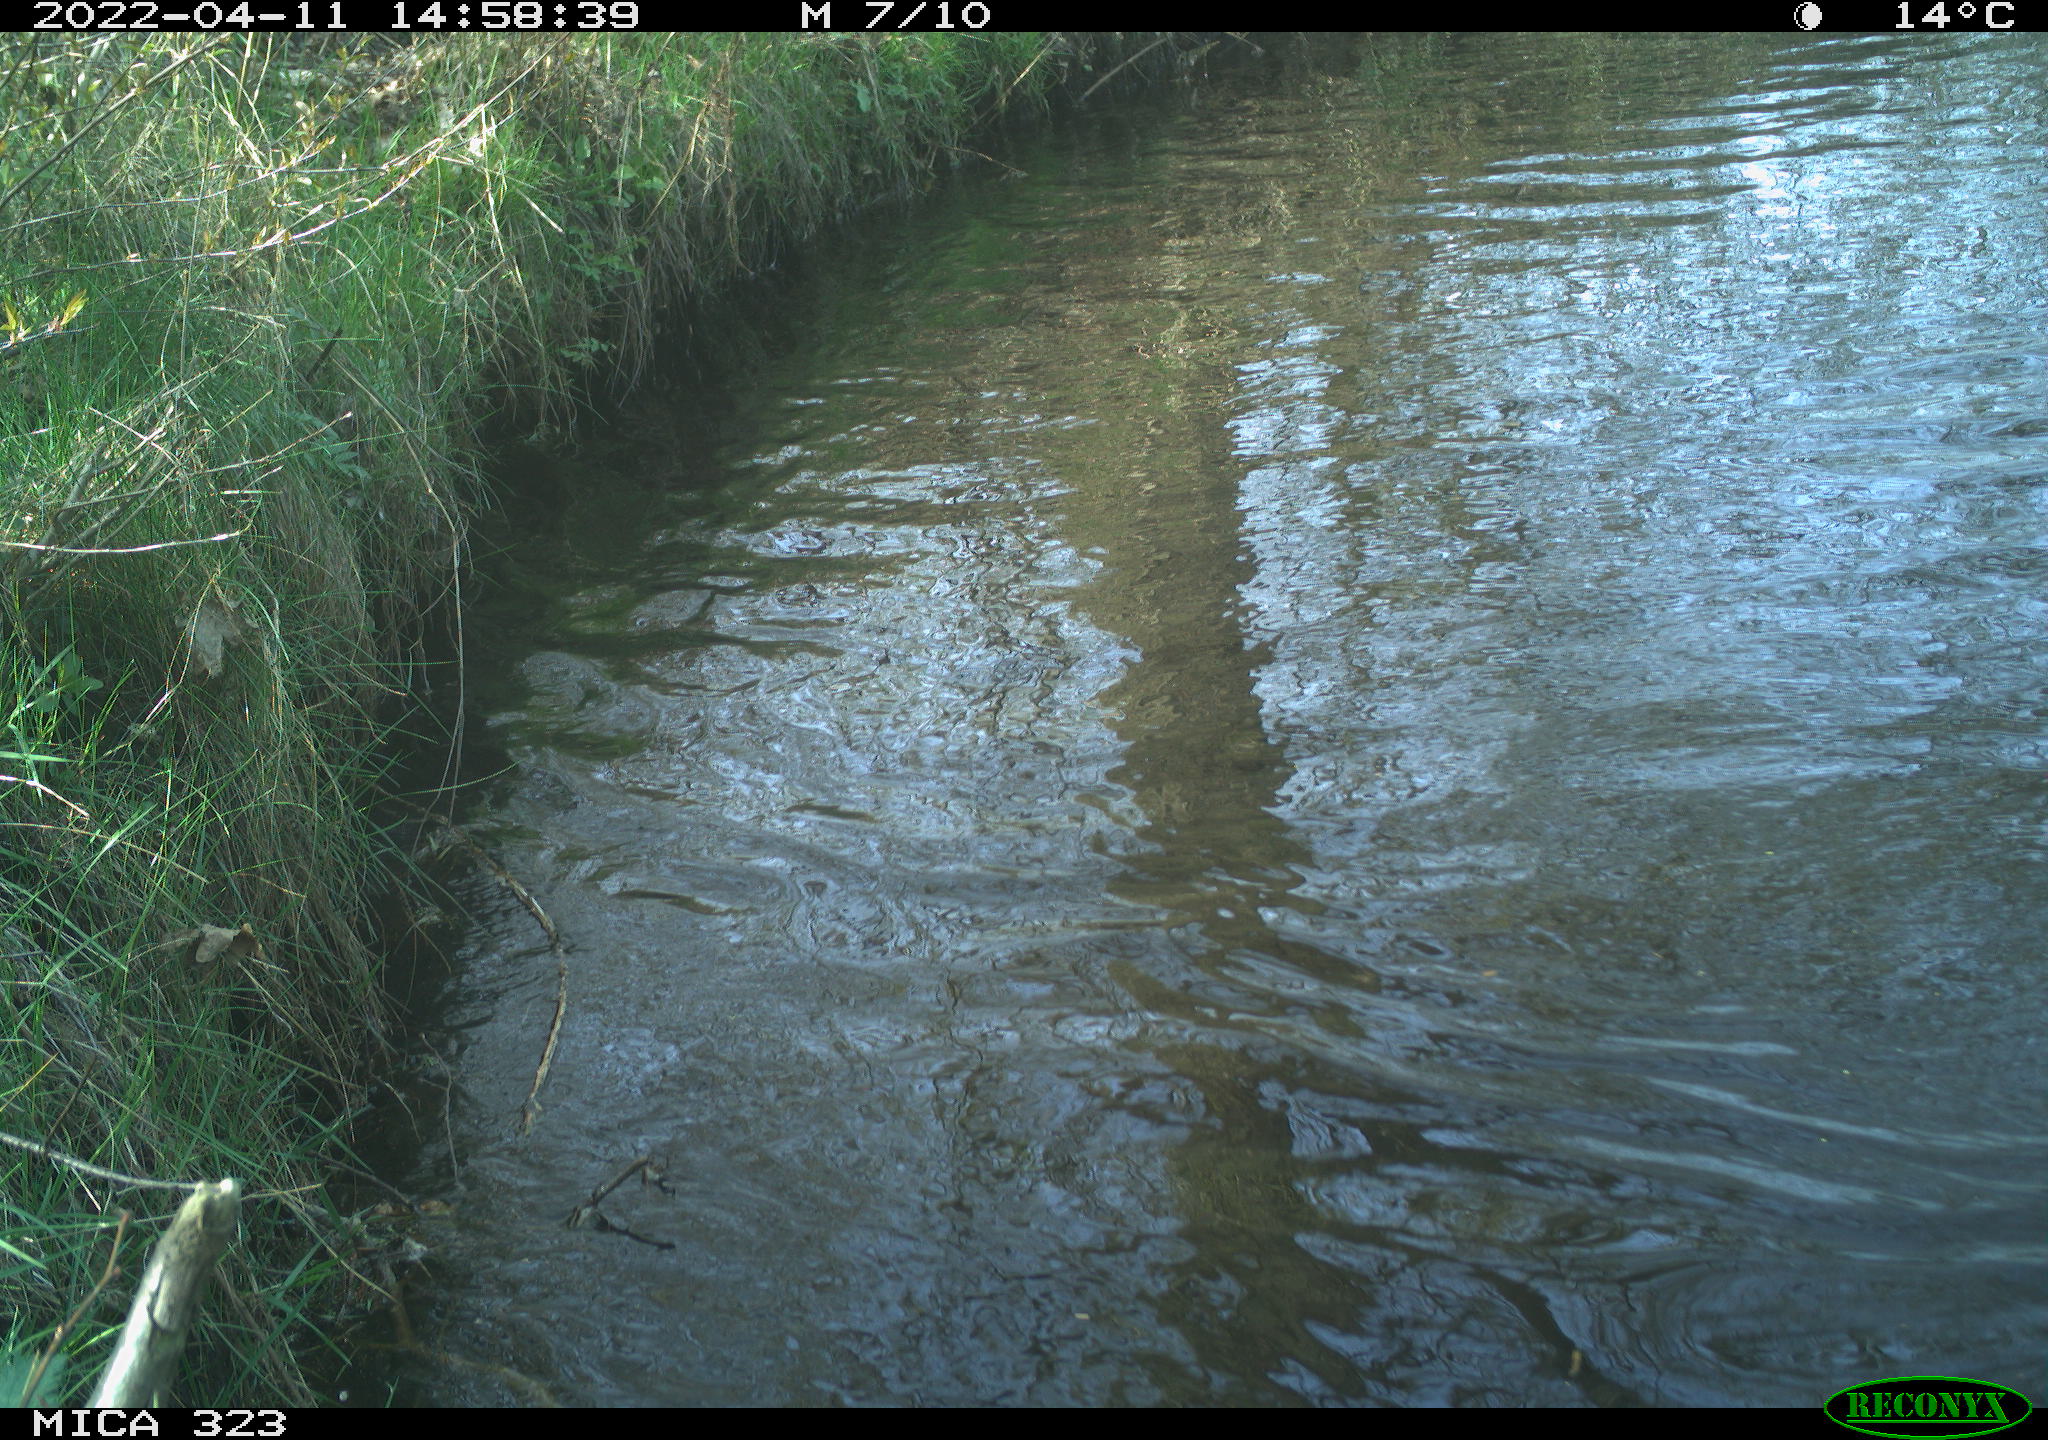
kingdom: Animalia
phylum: Chordata
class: Aves
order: Anseriformes
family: Anatidae
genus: Anas
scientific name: Anas platyrhynchos
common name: Mallard
